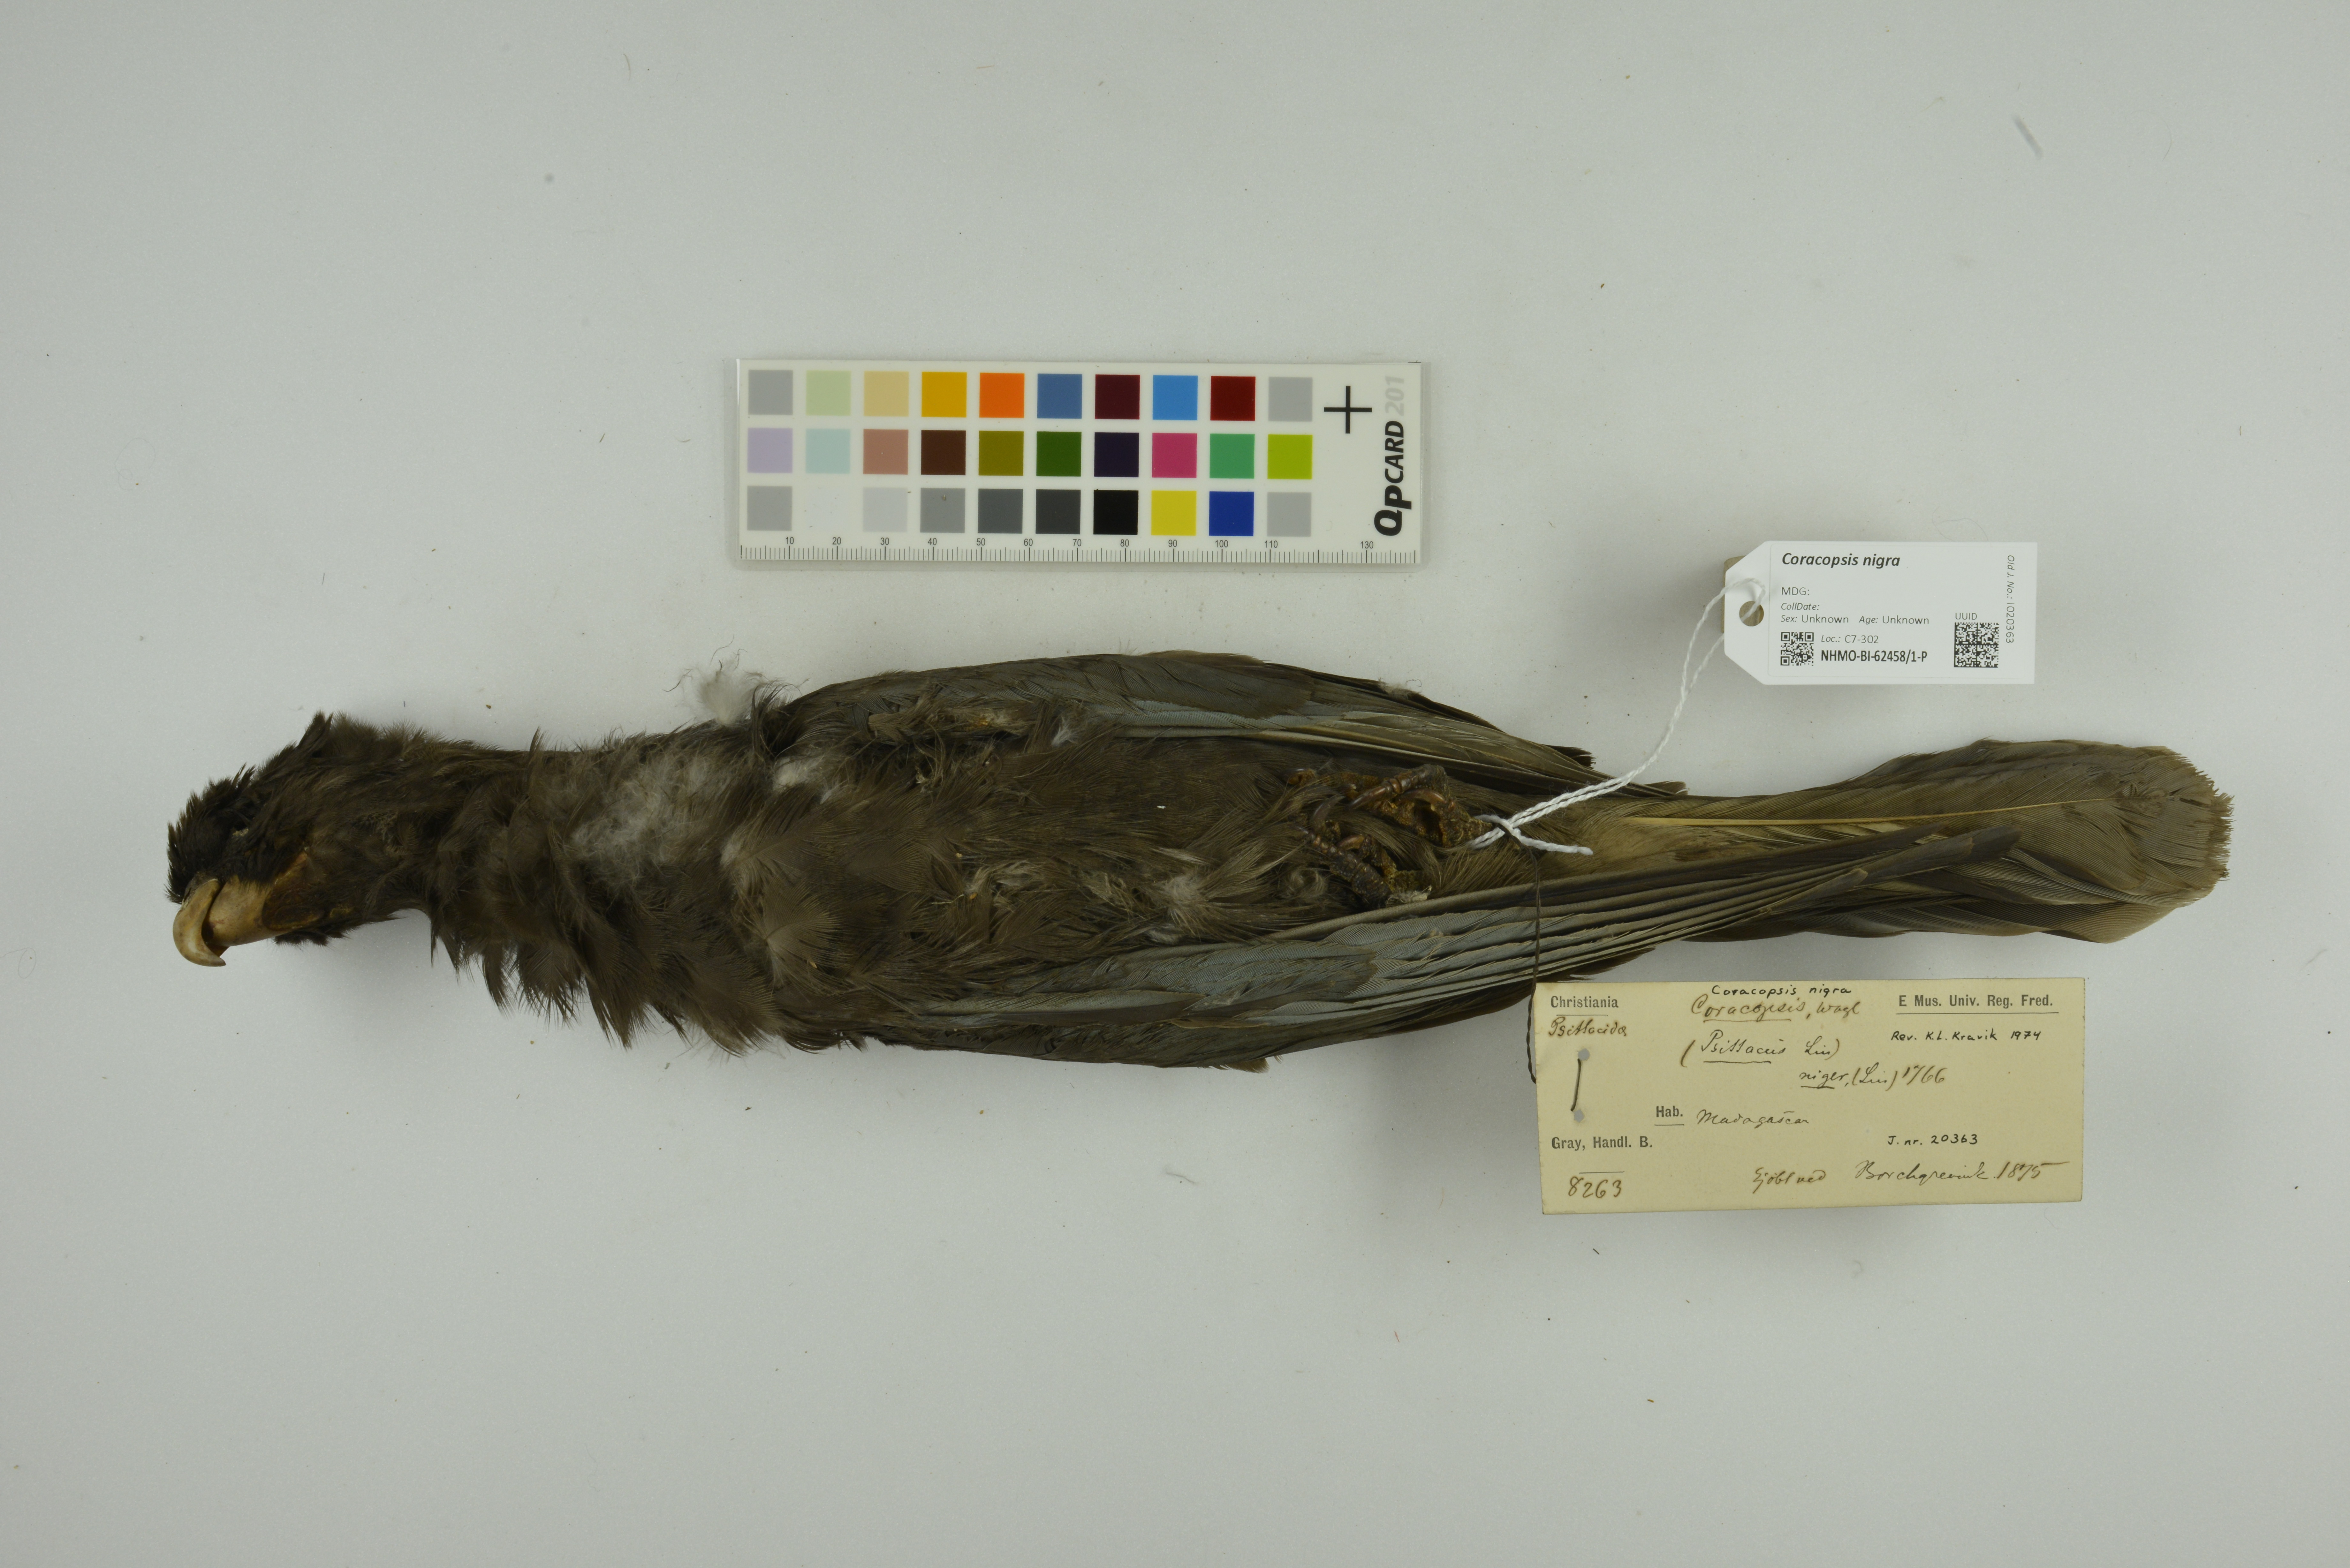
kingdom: Animalia
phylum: Chordata
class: Aves
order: Psittaciformes
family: Psittacidae
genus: Coracopsis
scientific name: Coracopsis nigra
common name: Lesser vasa parrot
